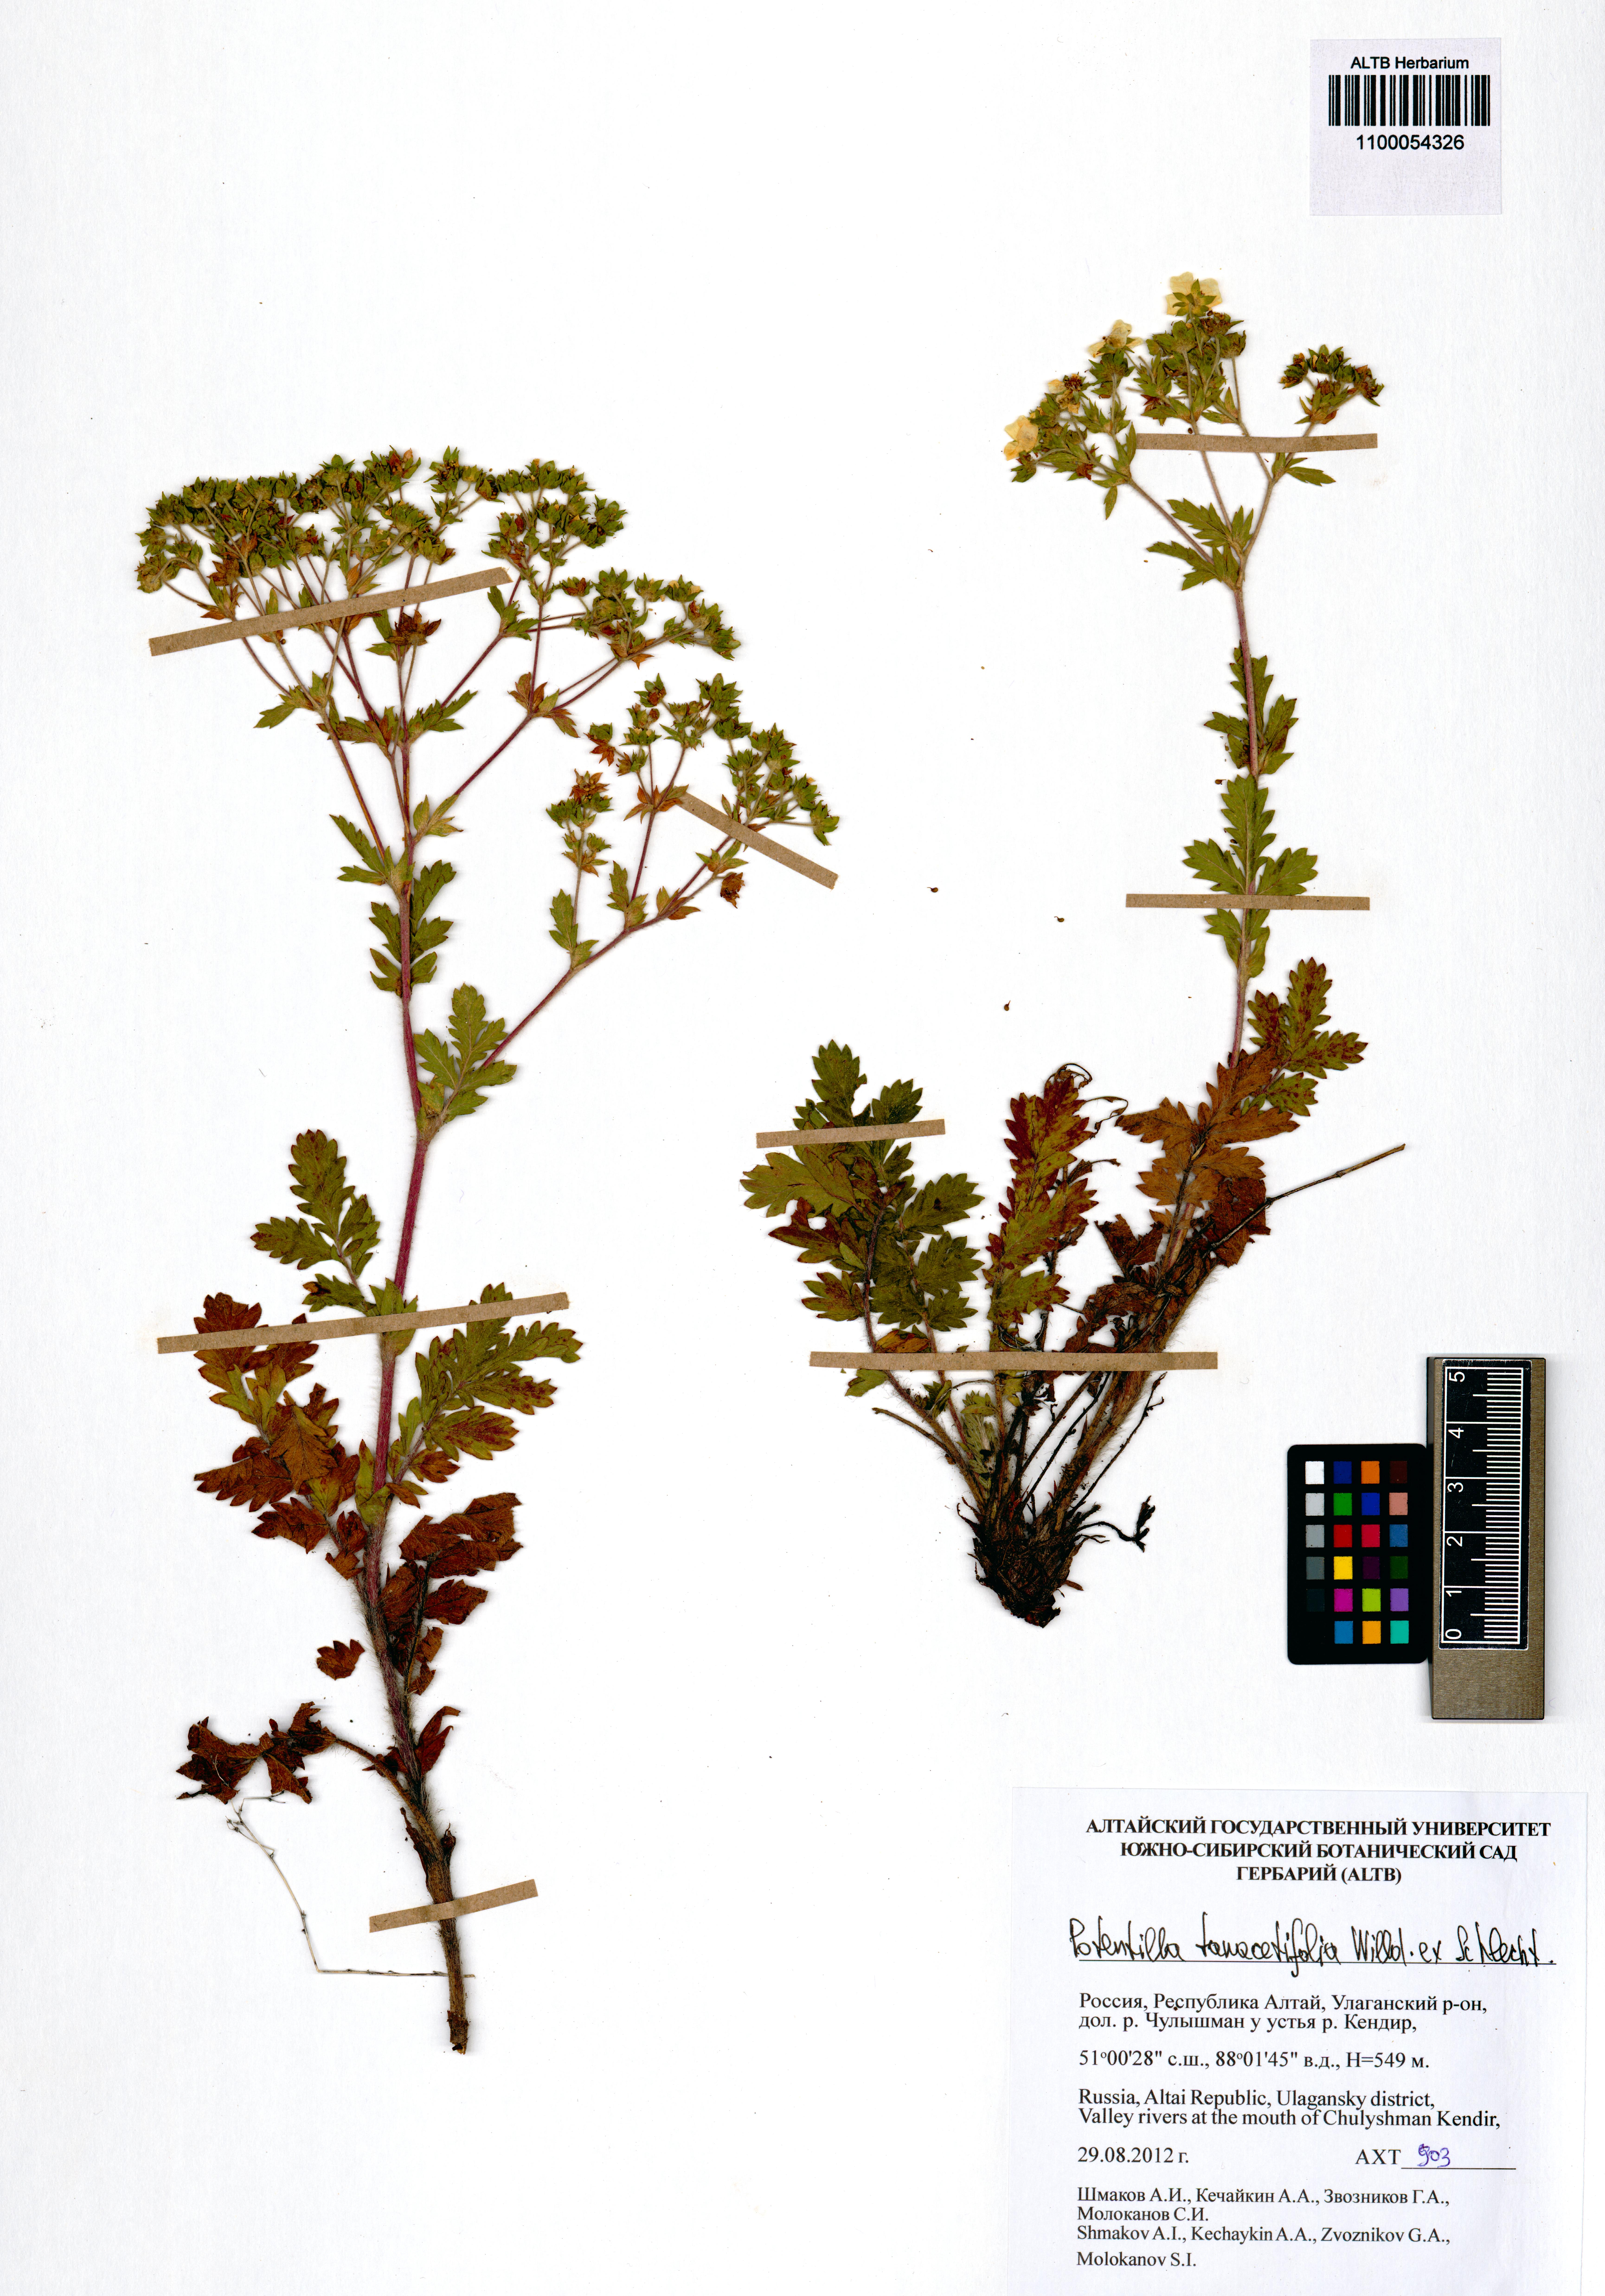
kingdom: Plantae
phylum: Tracheophyta
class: Magnoliopsida
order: Rosales
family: Rosaceae
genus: Potentilla
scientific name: Potentilla tanacetifolia
